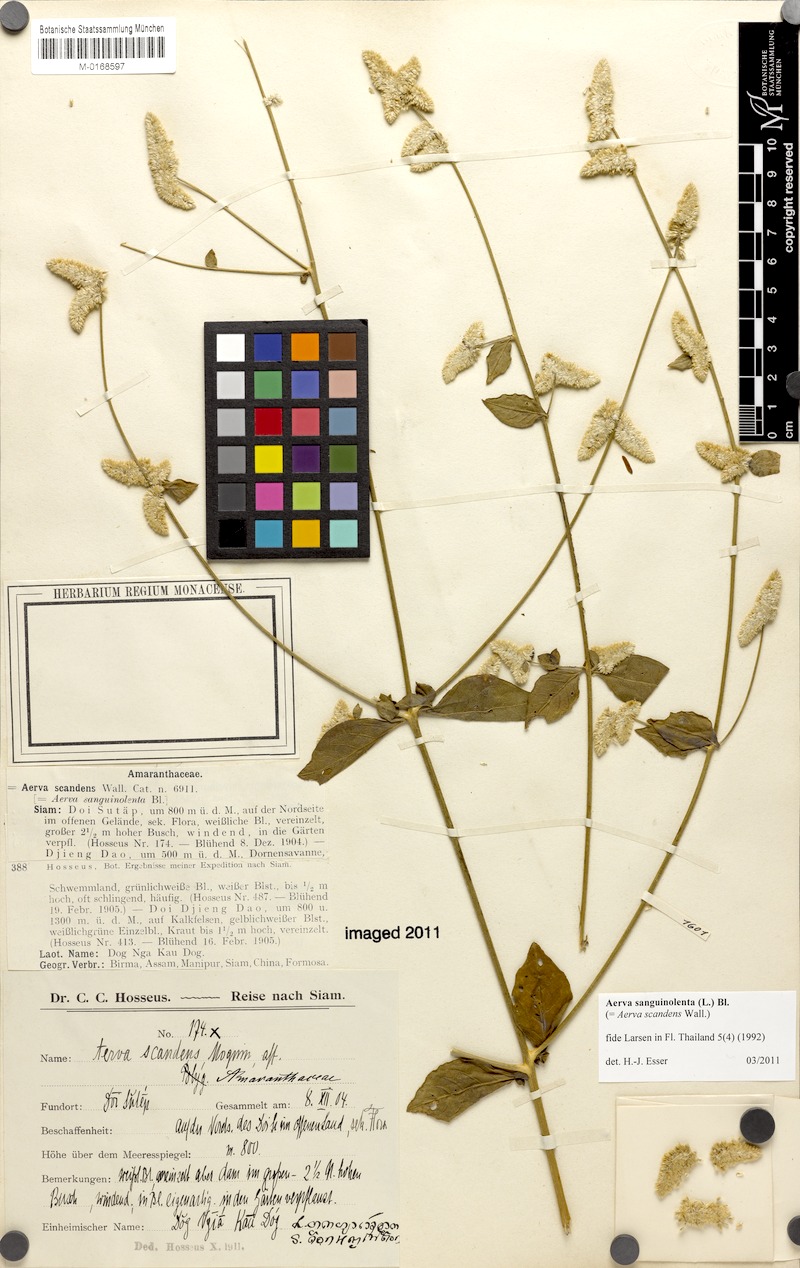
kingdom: Plantae
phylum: Tracheophyta
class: Magnoliopsida
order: Caryophyllales
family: Amaranthaceae
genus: Ouret
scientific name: Ouret sanguinolenta
